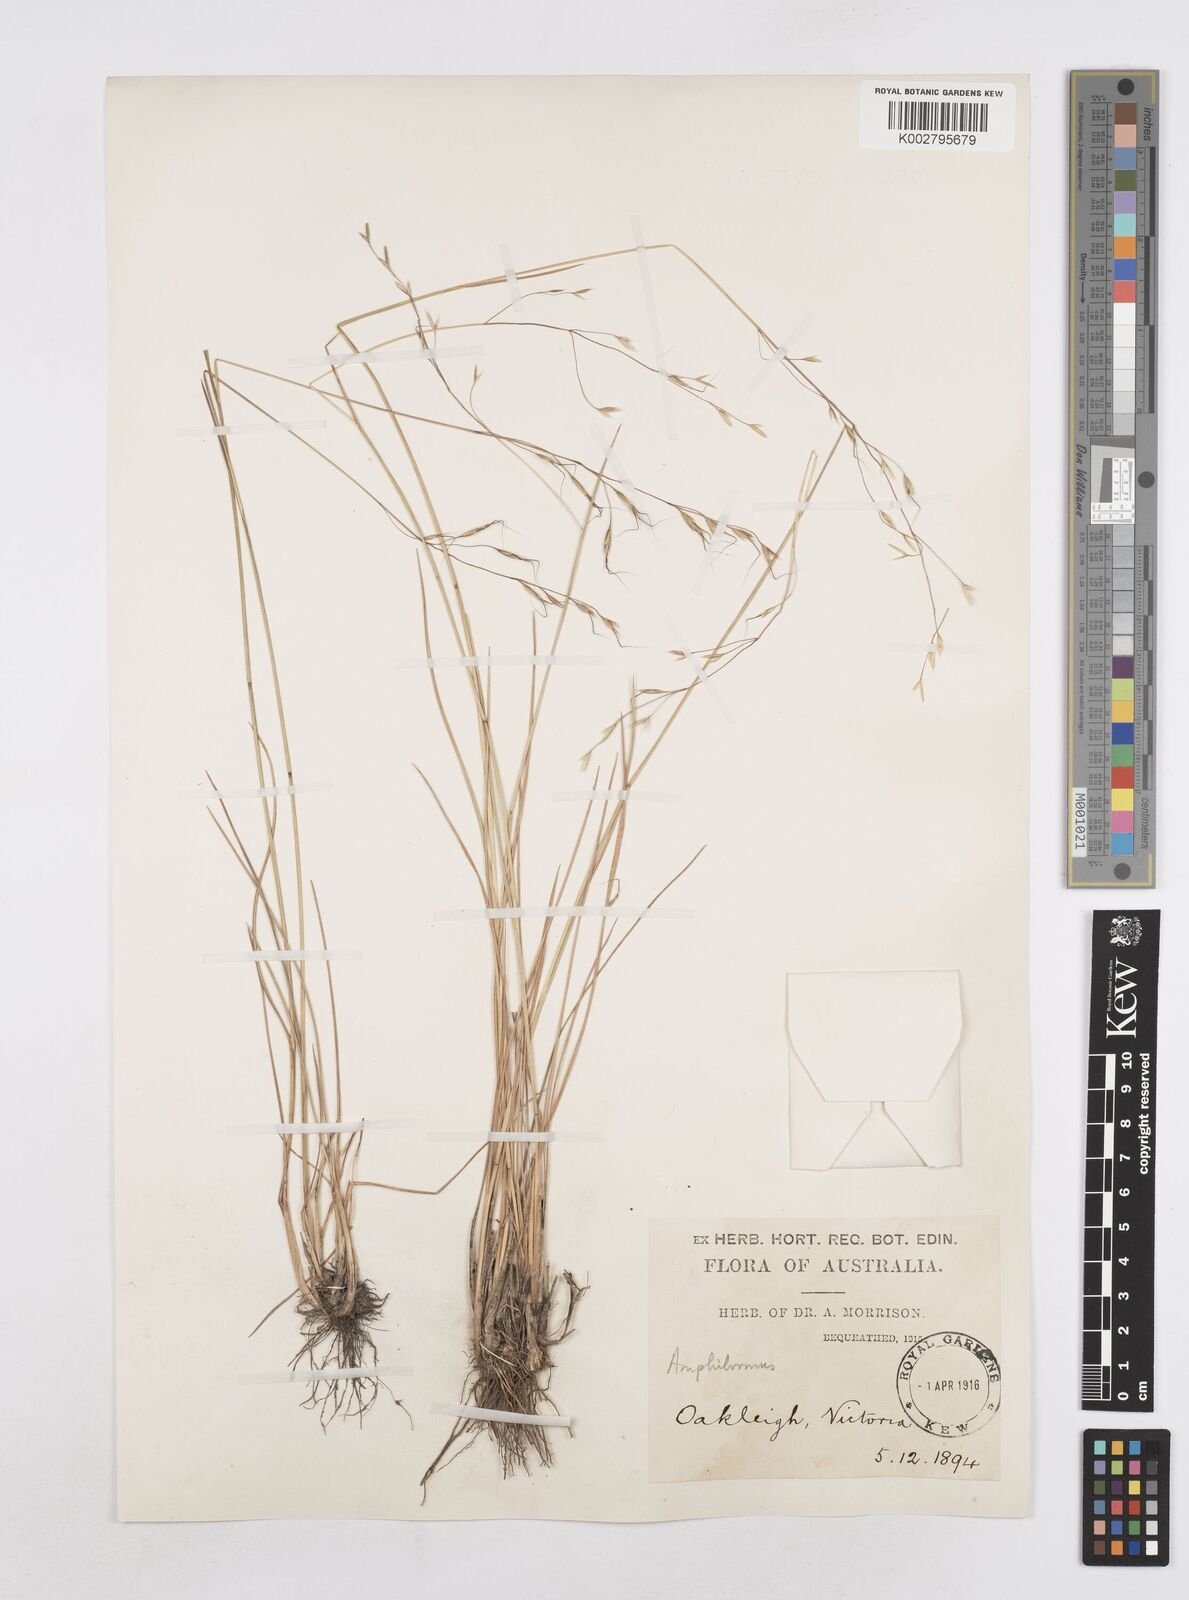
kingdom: Plantae
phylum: Tracheophyta
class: Liliopsida
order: Poales
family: Poaceae
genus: Amphibromus
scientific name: Amphibromus neesii
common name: Australian wallaby grass
